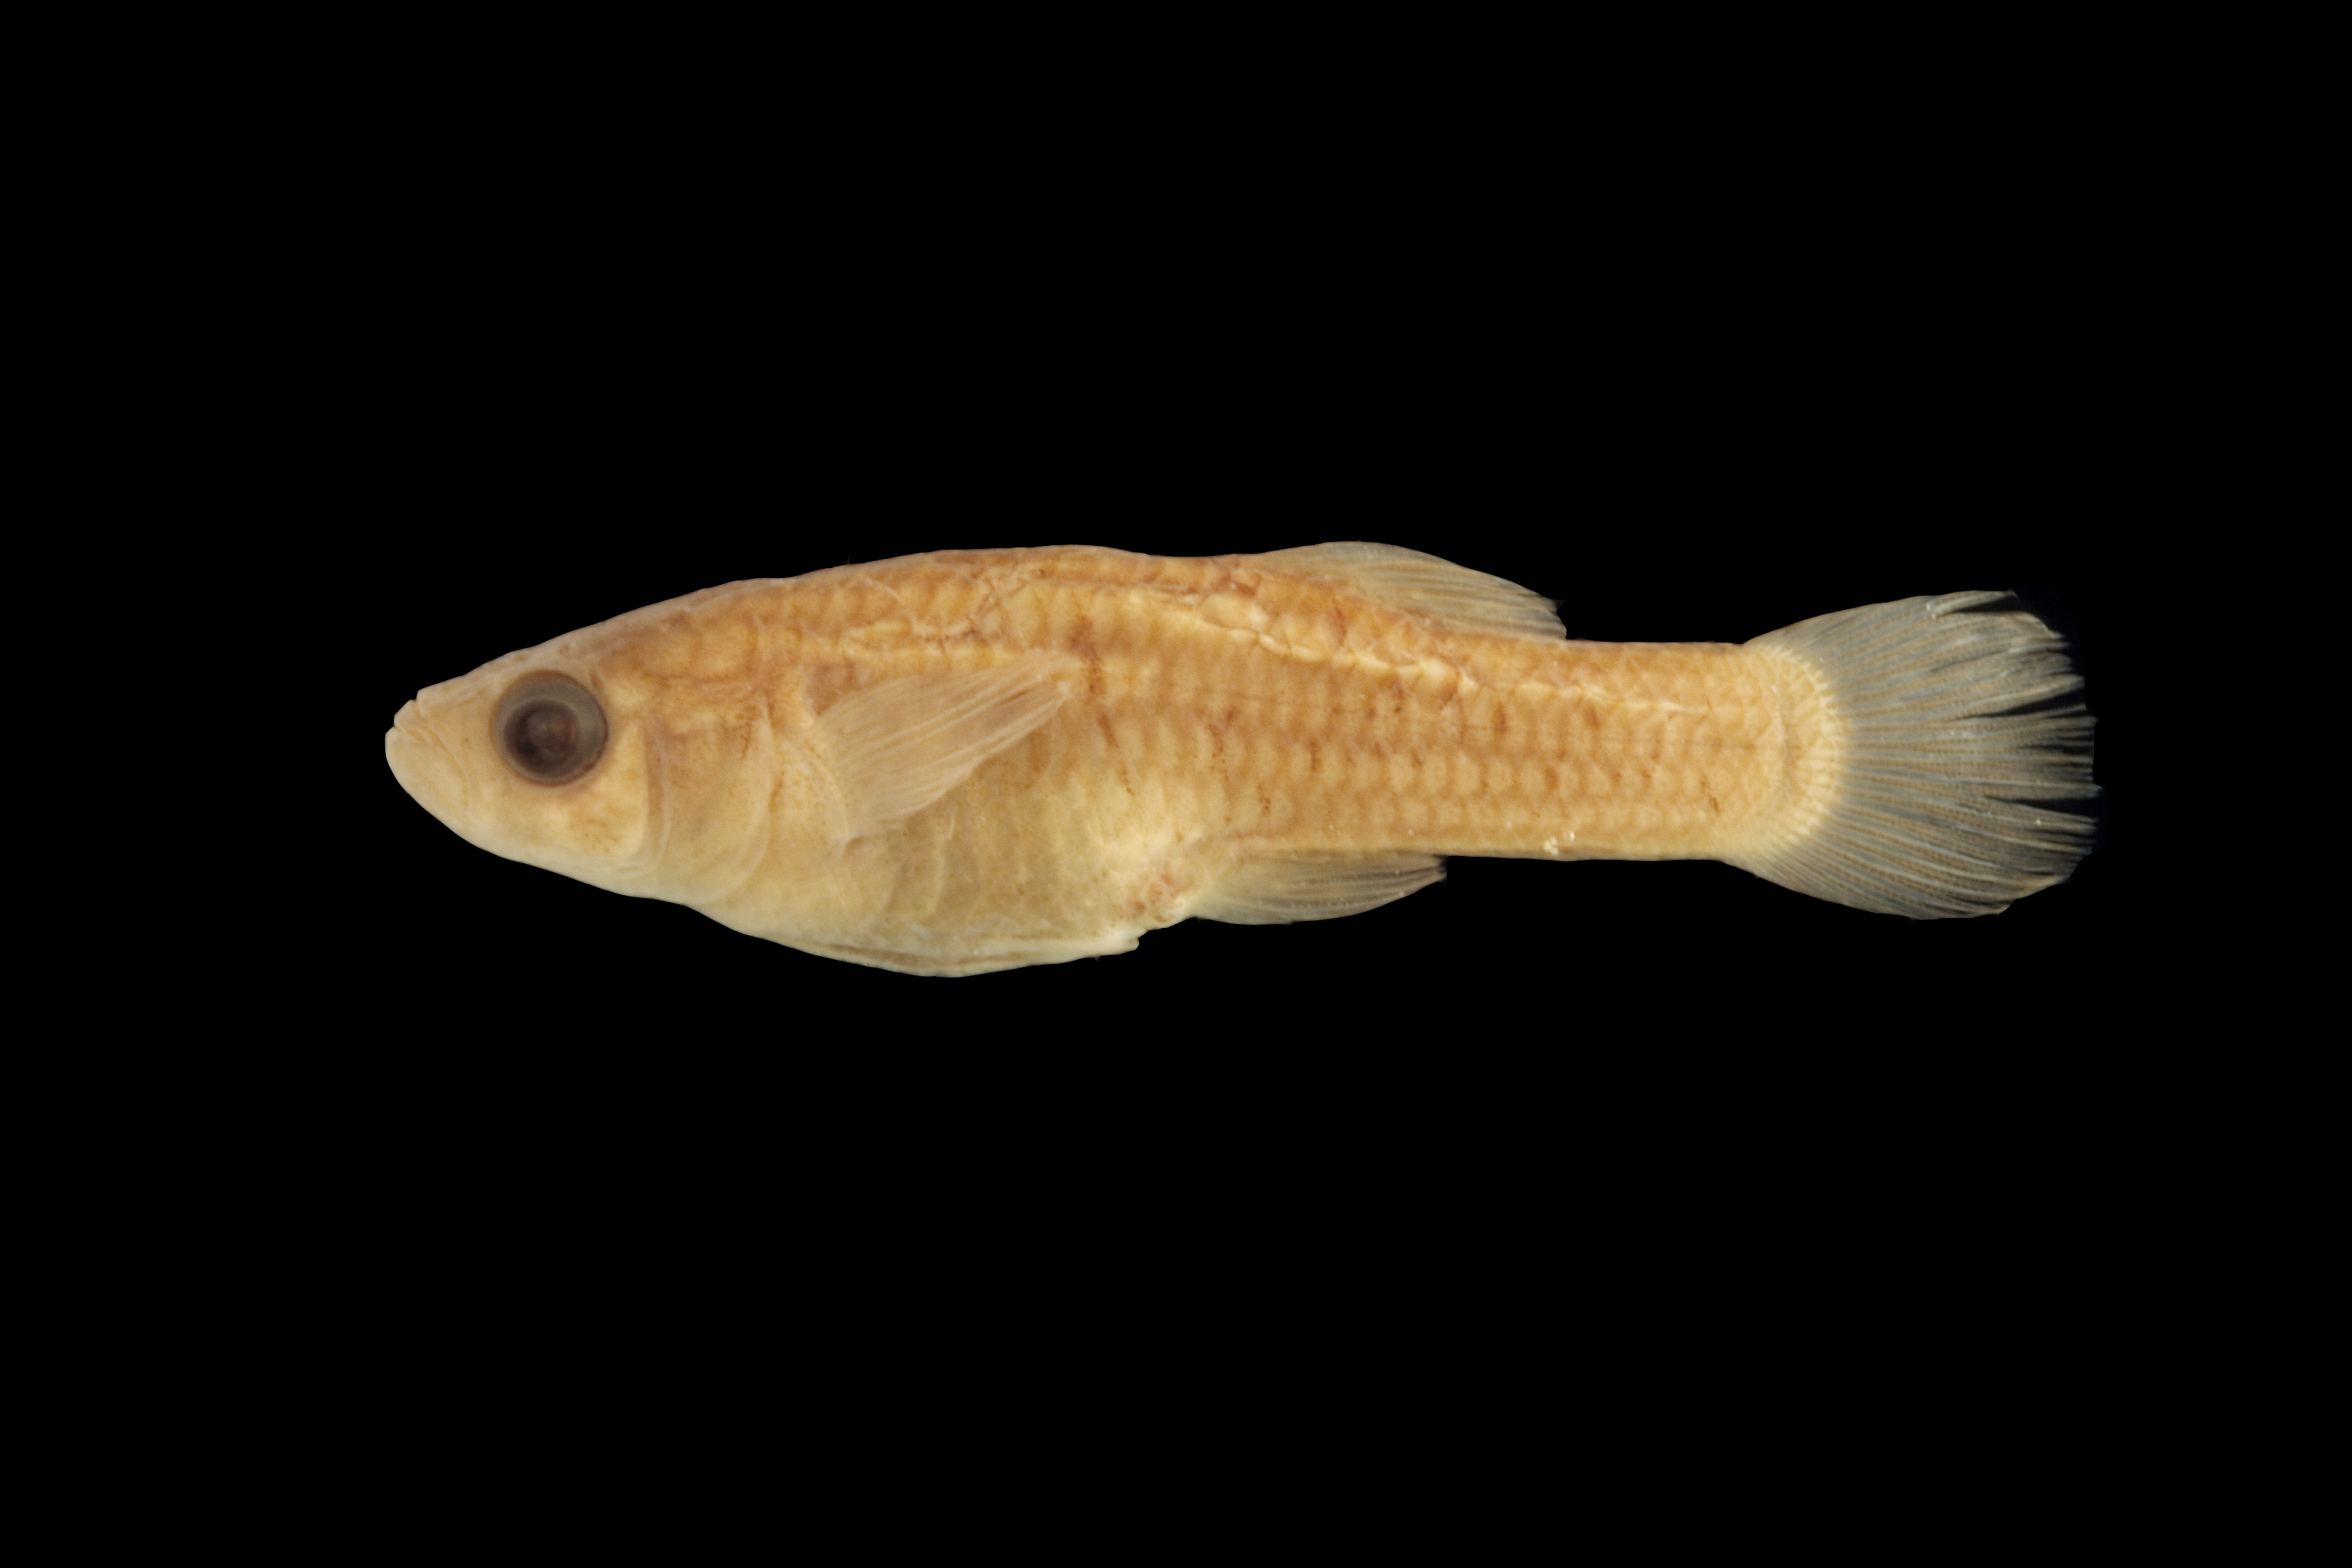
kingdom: Animalia
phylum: Chordata
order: Cyprinodontiformes
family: Poeciliidae
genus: Gambusia
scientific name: Gambusia heterochir
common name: Clear creek gambusia
